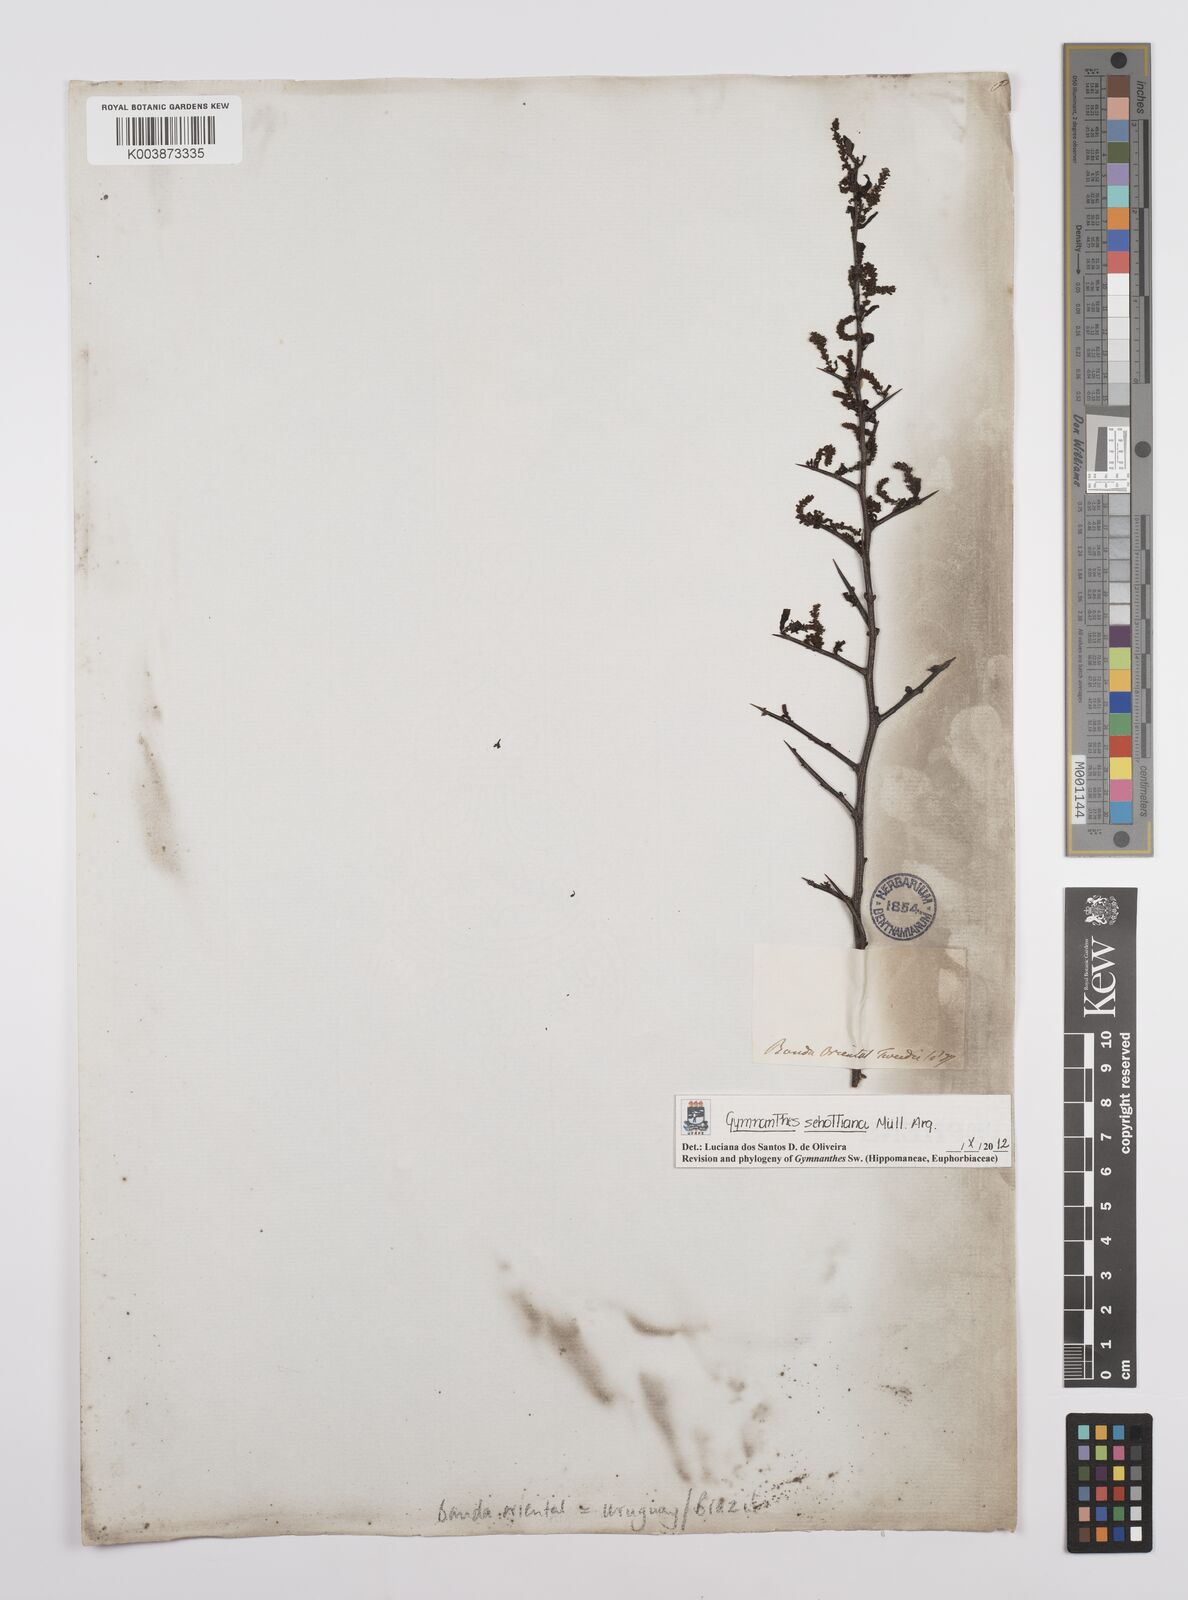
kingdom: Plantae
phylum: Tracheophyta
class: Magnoliopsida
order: Malpighiales
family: Euphorbiaceae
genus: Sebastiania
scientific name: Sebastiania schottiana
